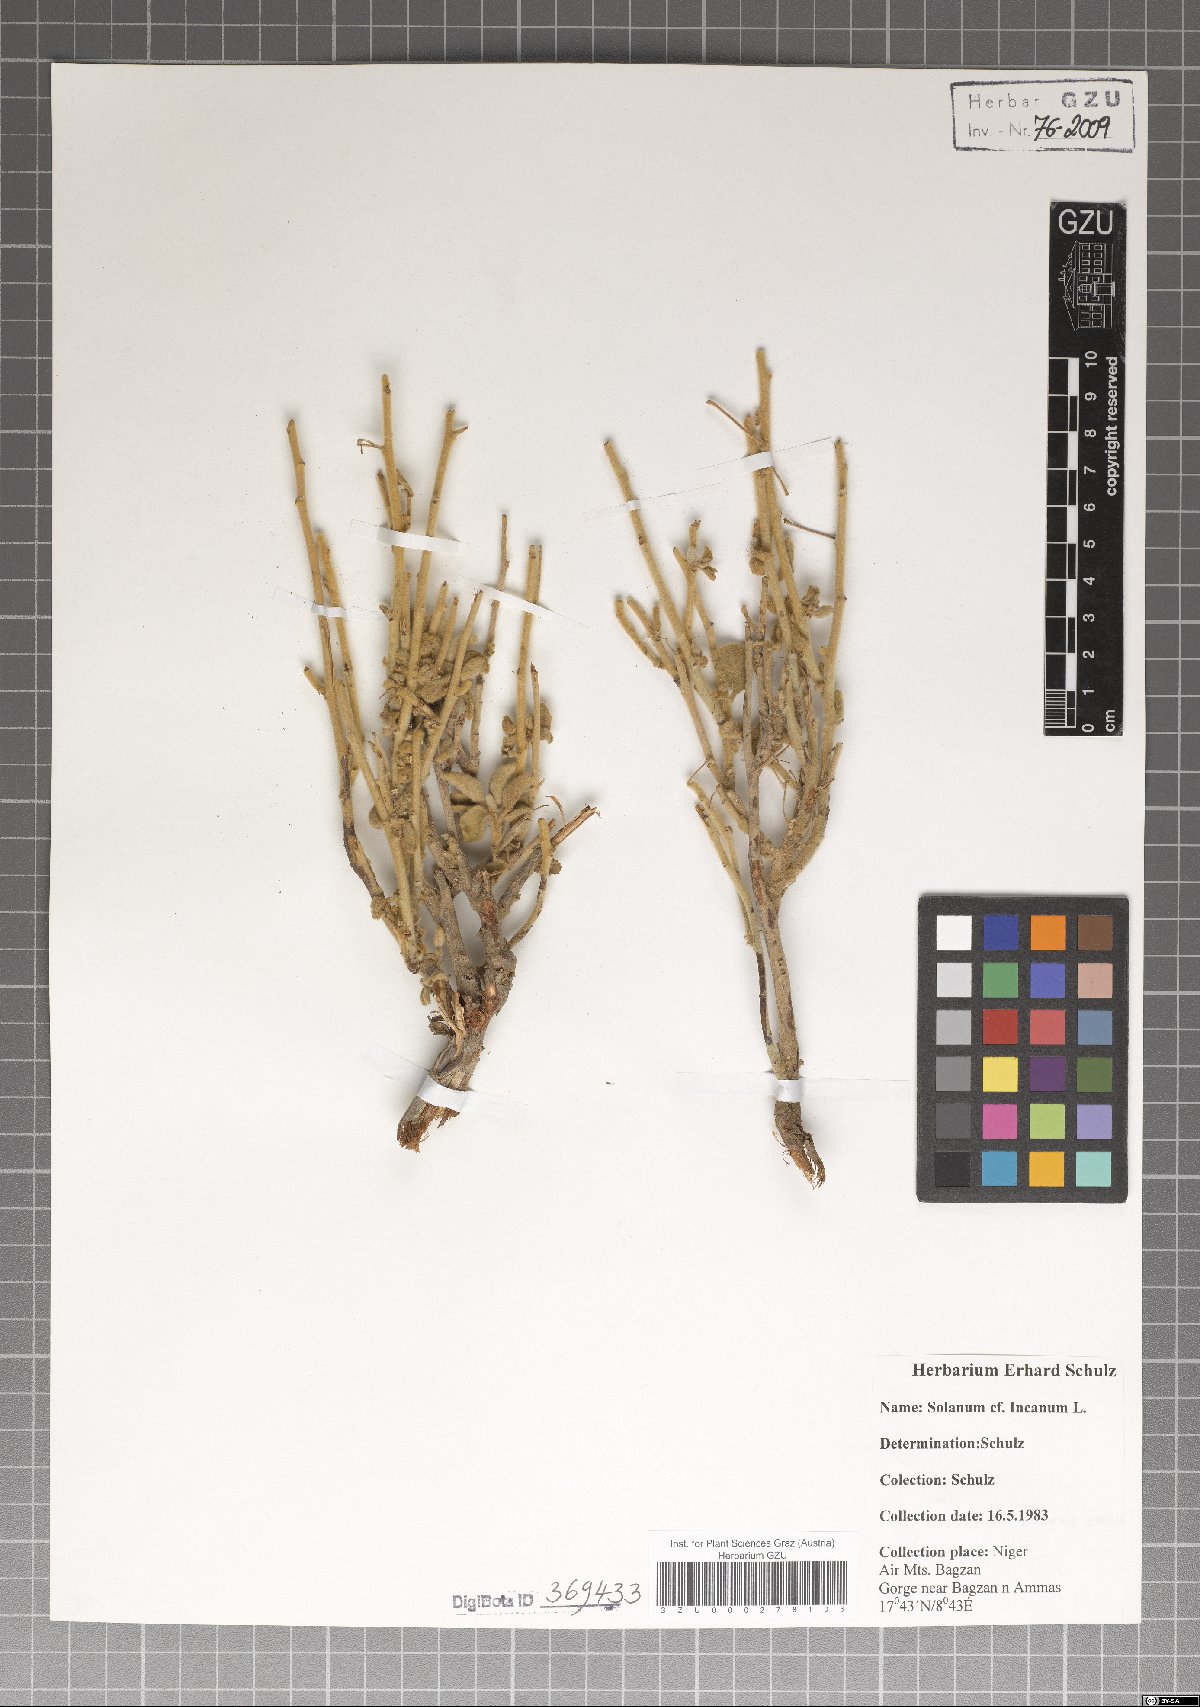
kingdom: Plantae
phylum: Tracheophyta
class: Magnoliopsida
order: Solanales
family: Solanaceae
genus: Solanum
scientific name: Solanum incanum
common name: Bitter apple
